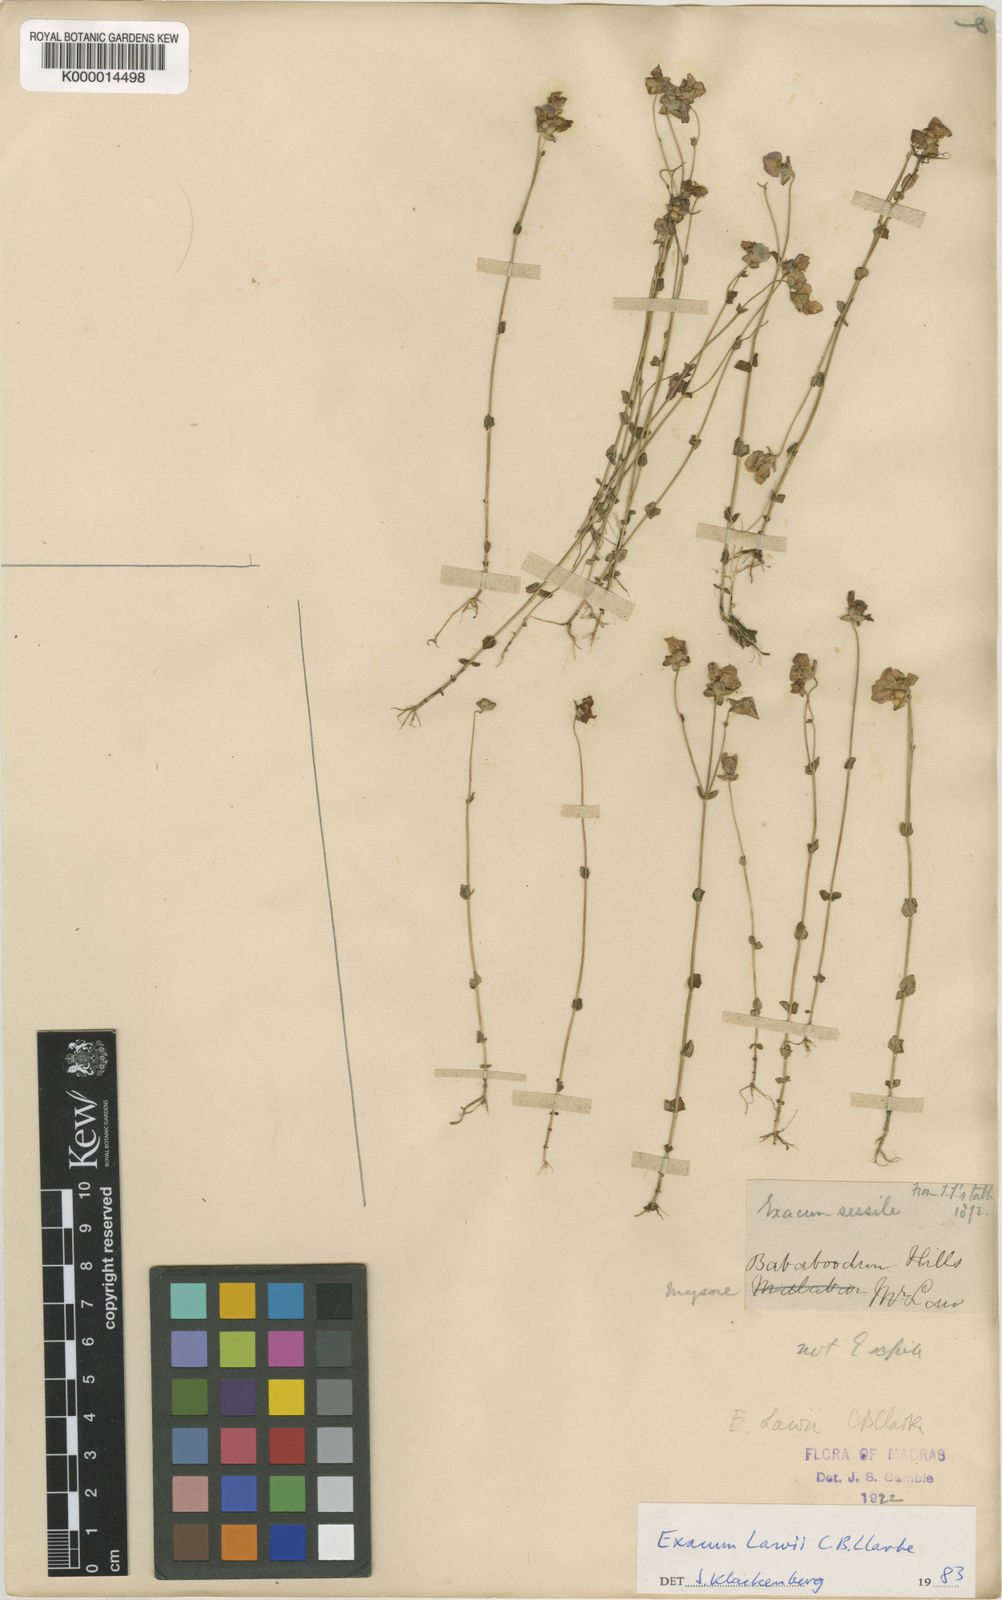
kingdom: Plantae
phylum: Tracheophyta
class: Magnoliopsida
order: Gentianales
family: Gentianaceae
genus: Exacum
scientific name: Exacum lawii
